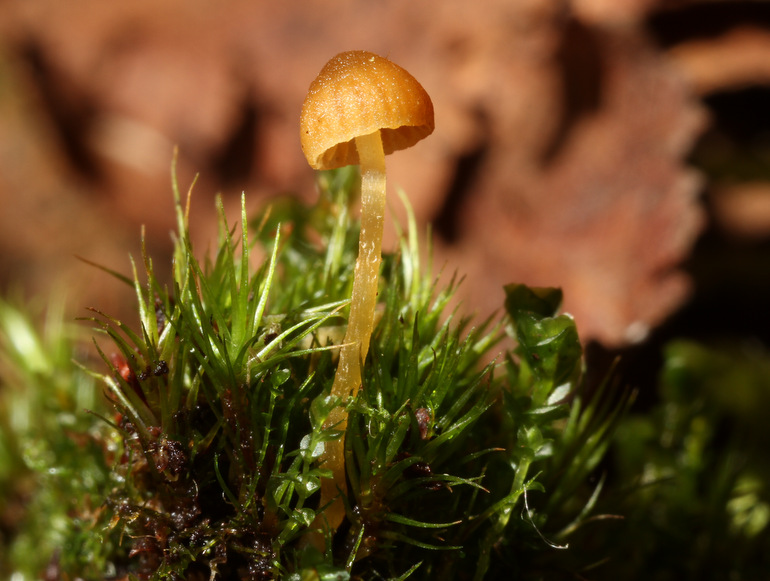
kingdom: Fungi
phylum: Basidiomycota
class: Agaricomycetes
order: Agaricales
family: Hymenogastraceae
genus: Galerina
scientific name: Galerina hypnorum
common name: mos-hjelmhat
